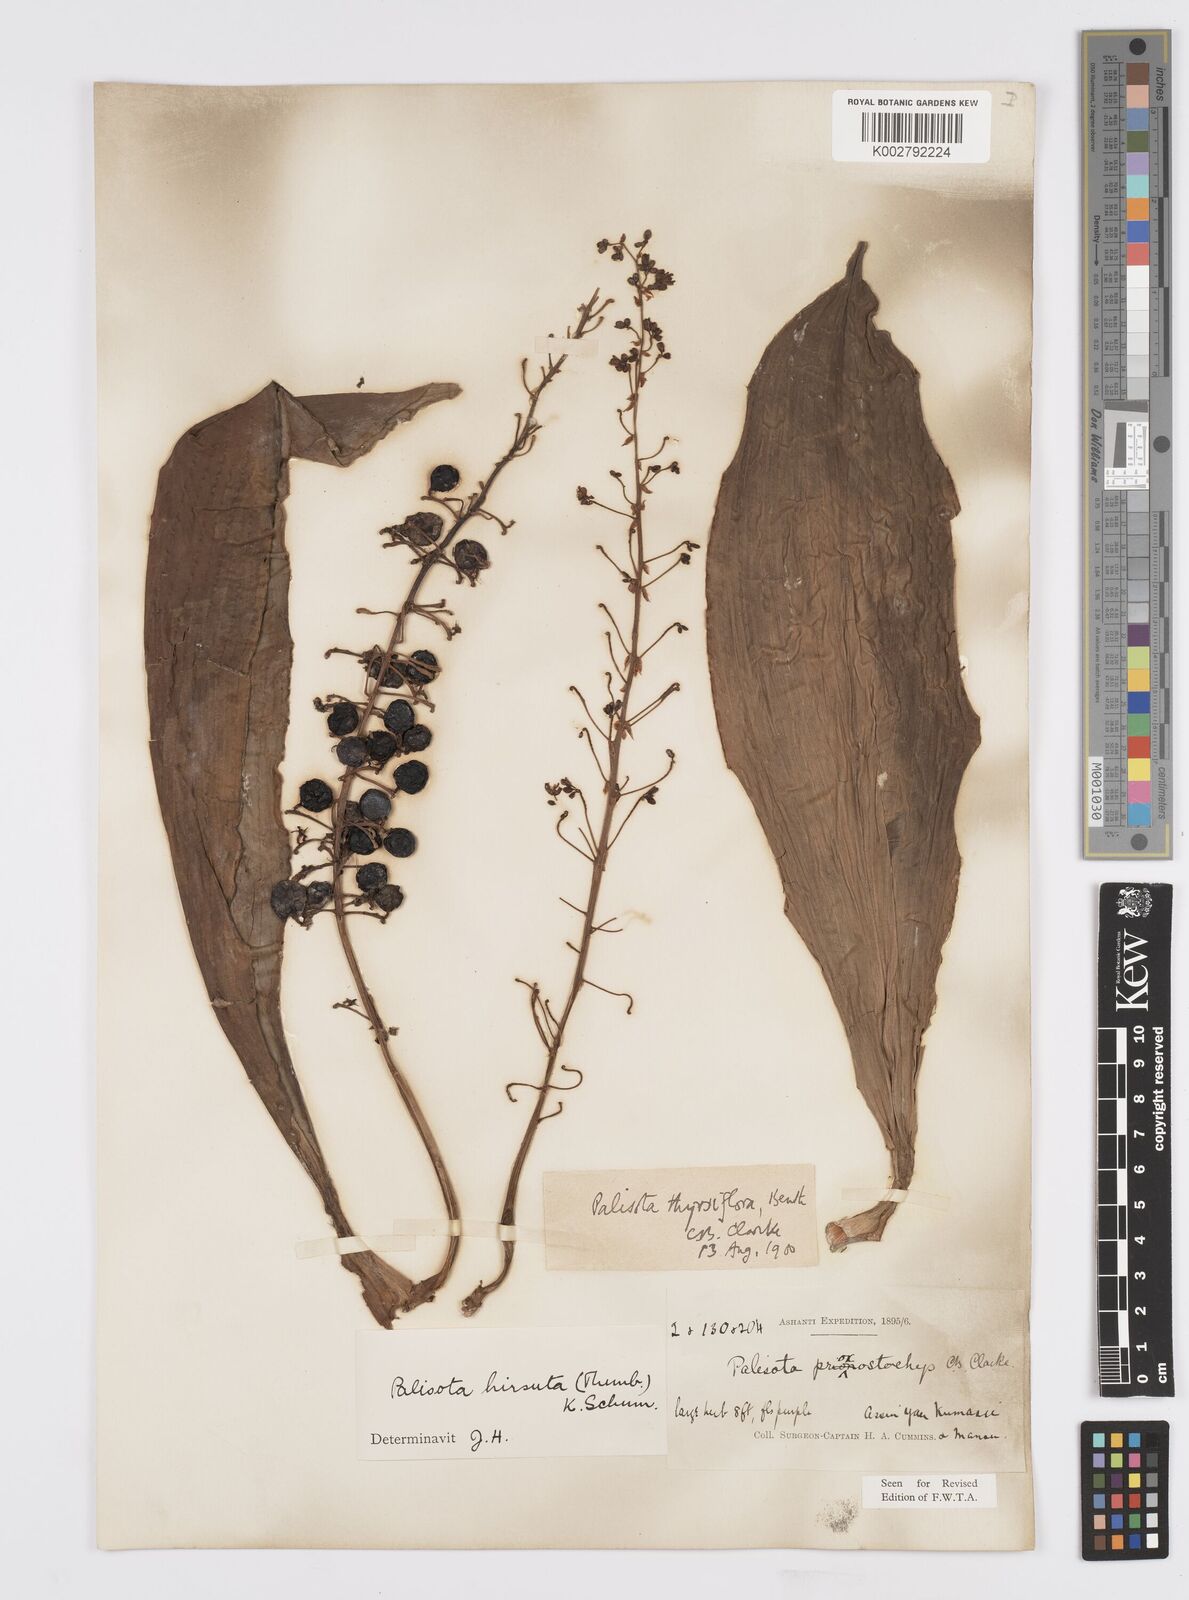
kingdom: Plantae
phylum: Tracheophyta
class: Liliopsida
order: Commelinales
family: Commelinaceae
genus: Palisota
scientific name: Palisota hirsuta
